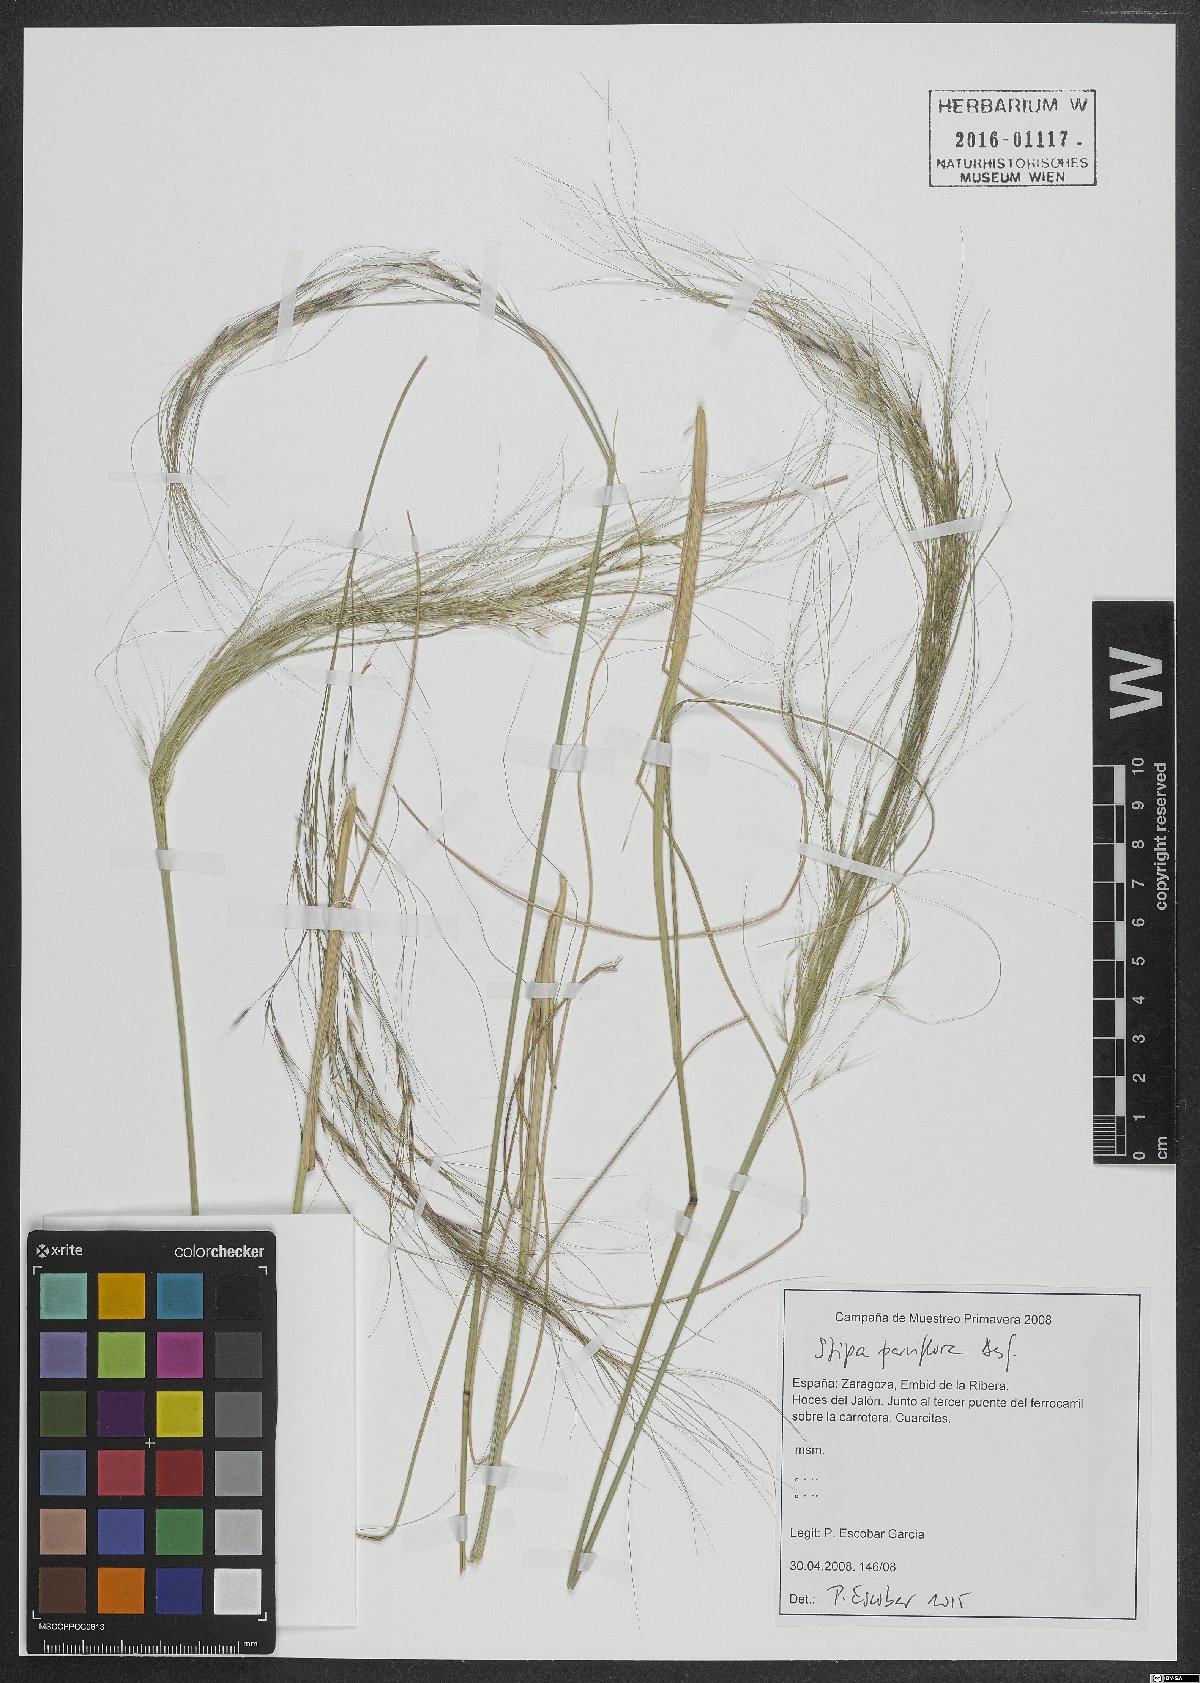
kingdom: Plantae
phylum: Tracheophyta
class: Liliopsida
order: Poales
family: Poaceae
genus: Achnatherum
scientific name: Achnatherum parviflorum
